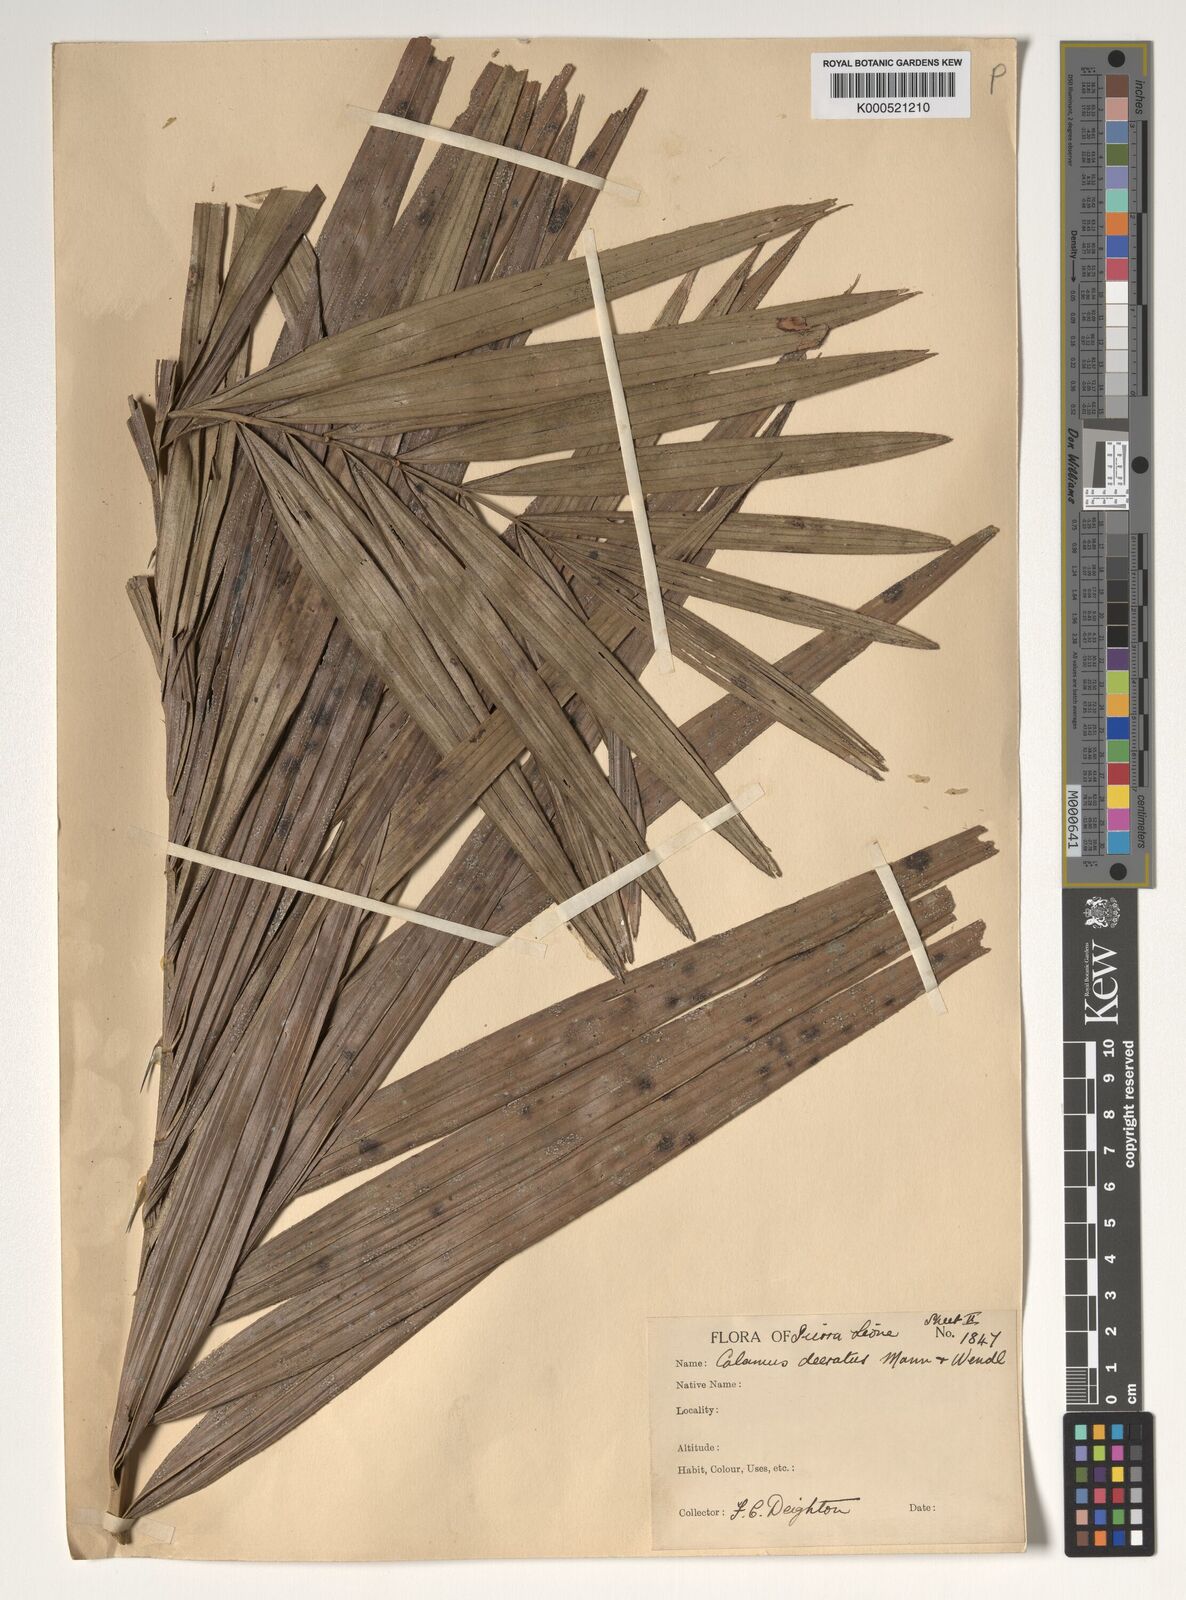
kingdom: Plantae
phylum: Tracheophyta
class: Liliopsida
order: Arecales
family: Arecaceae
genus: Calamus
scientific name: Calamus deerratus
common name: Rattan
